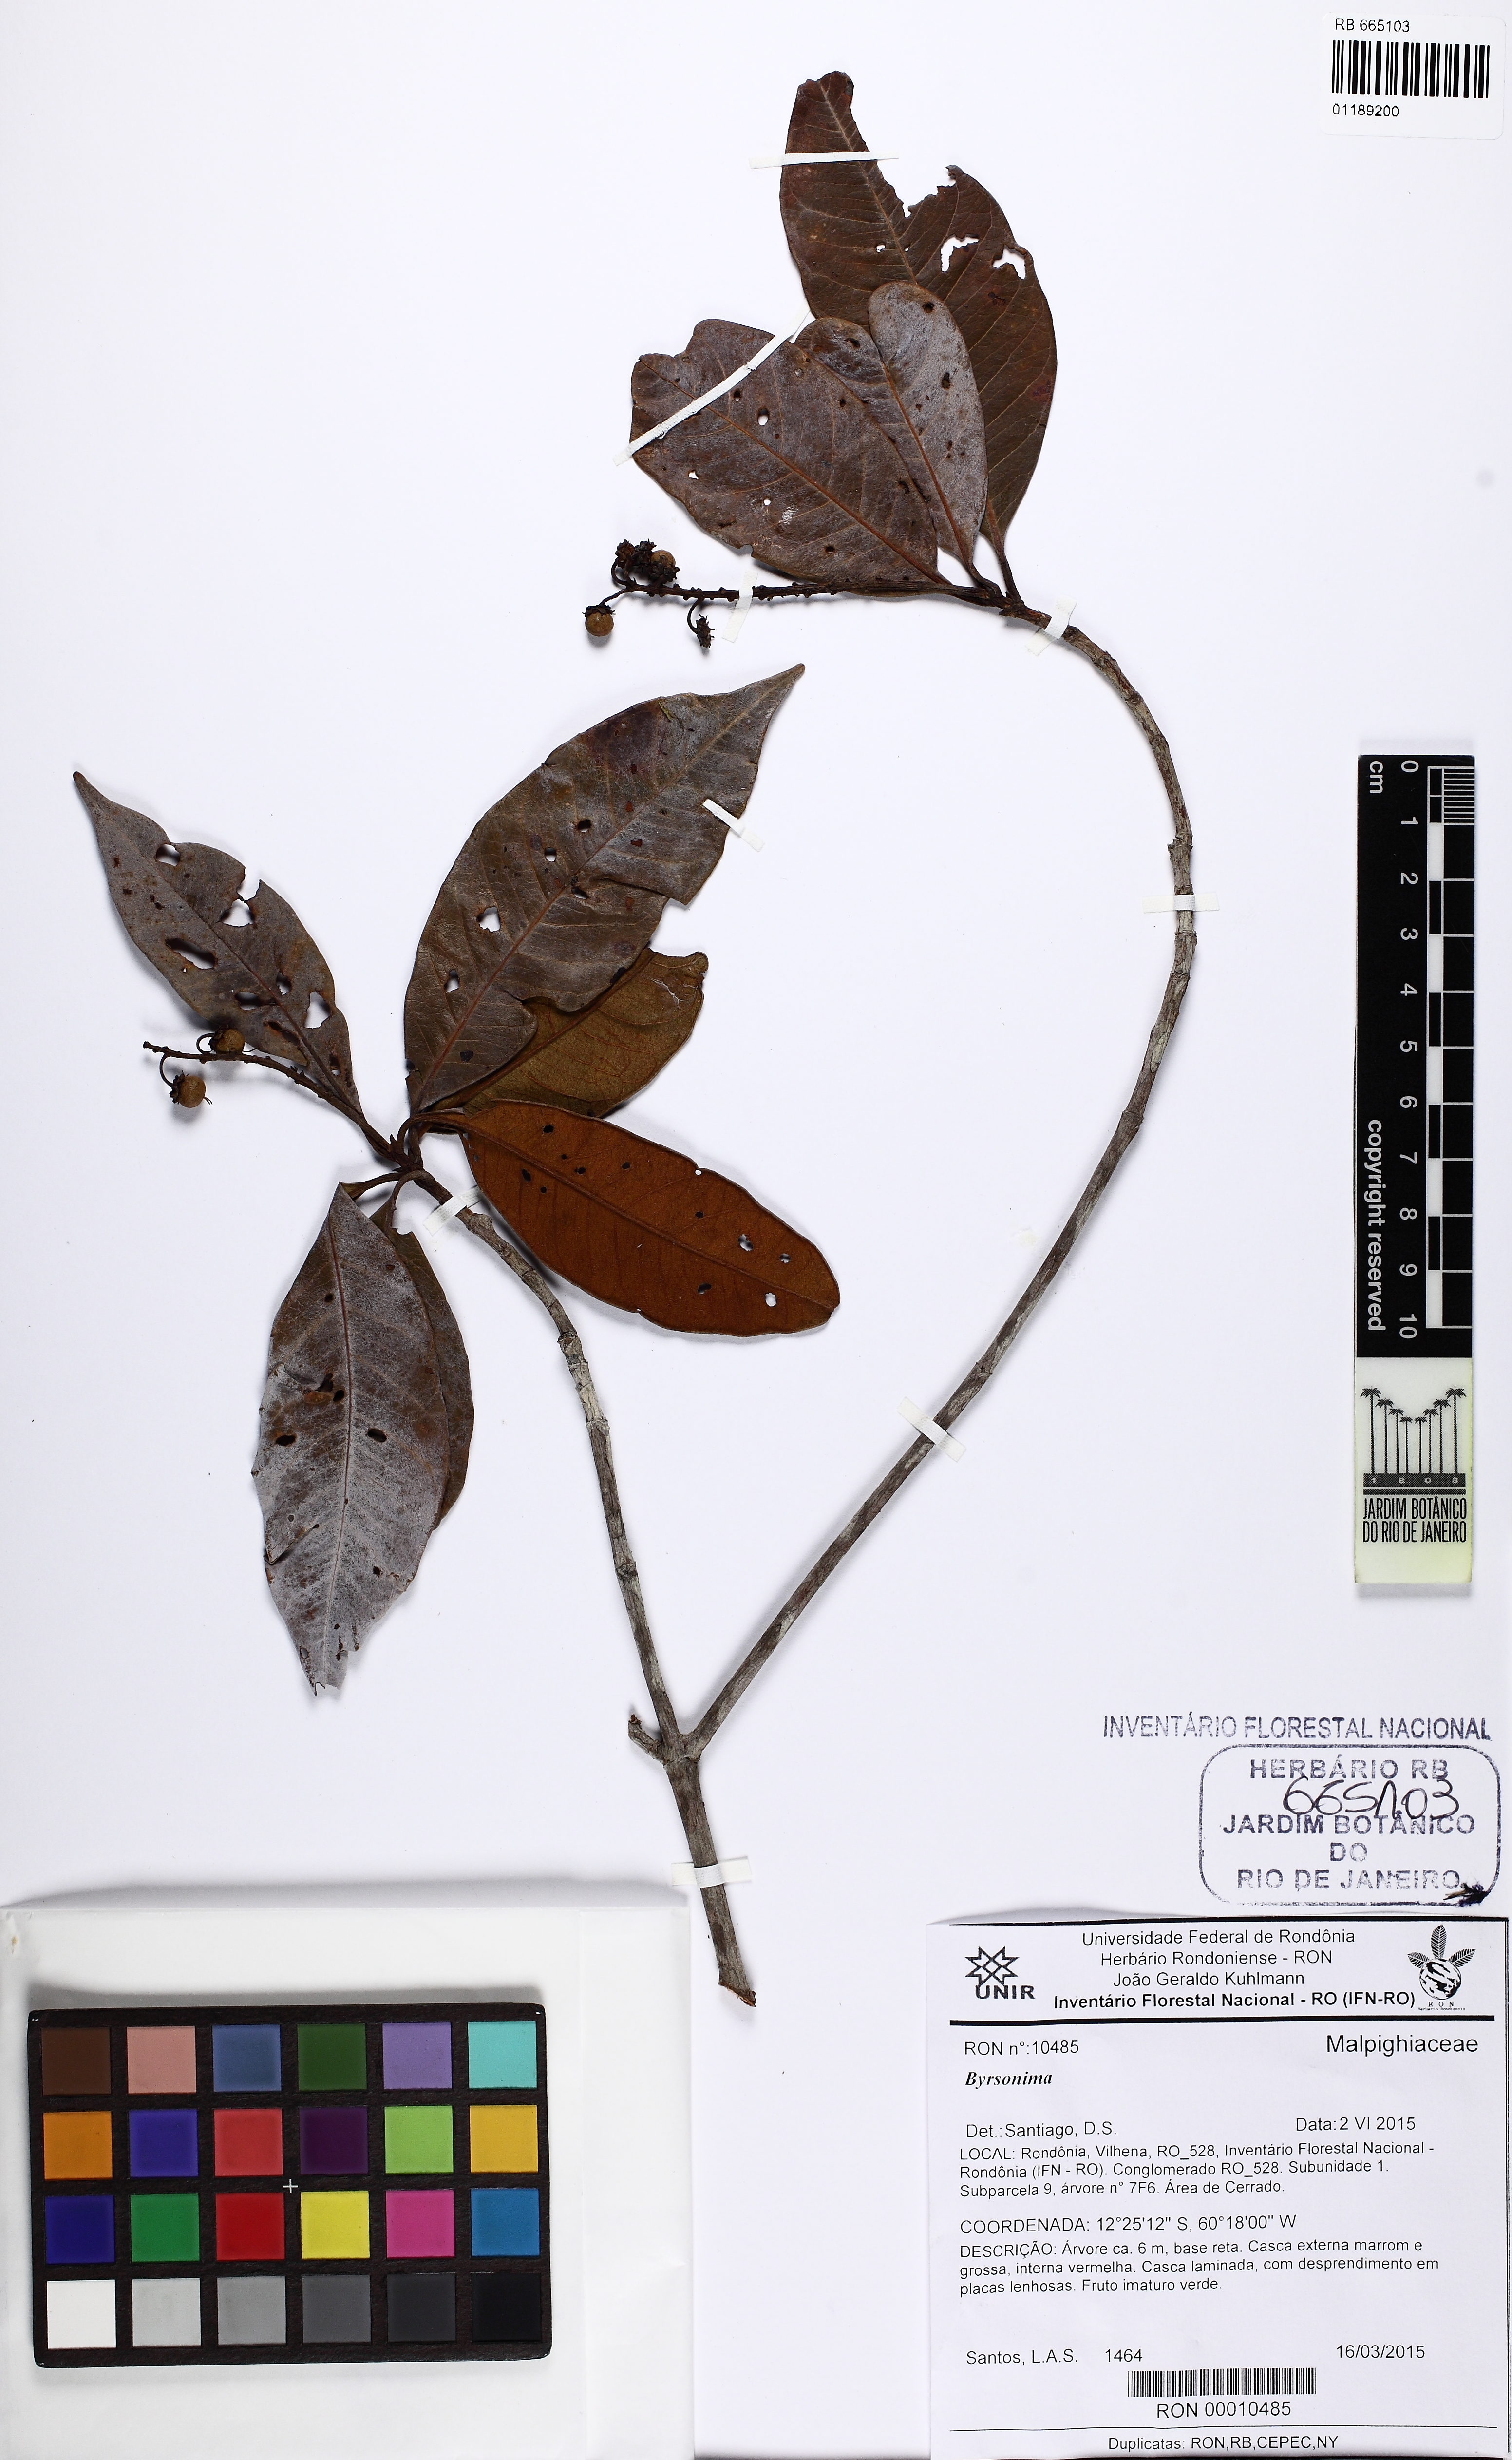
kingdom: Plantae
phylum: Tracheophyta
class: Magnoliopsida
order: Malpighiales
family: Malpighiaceae
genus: Byrsonima
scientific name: Byrsonima
